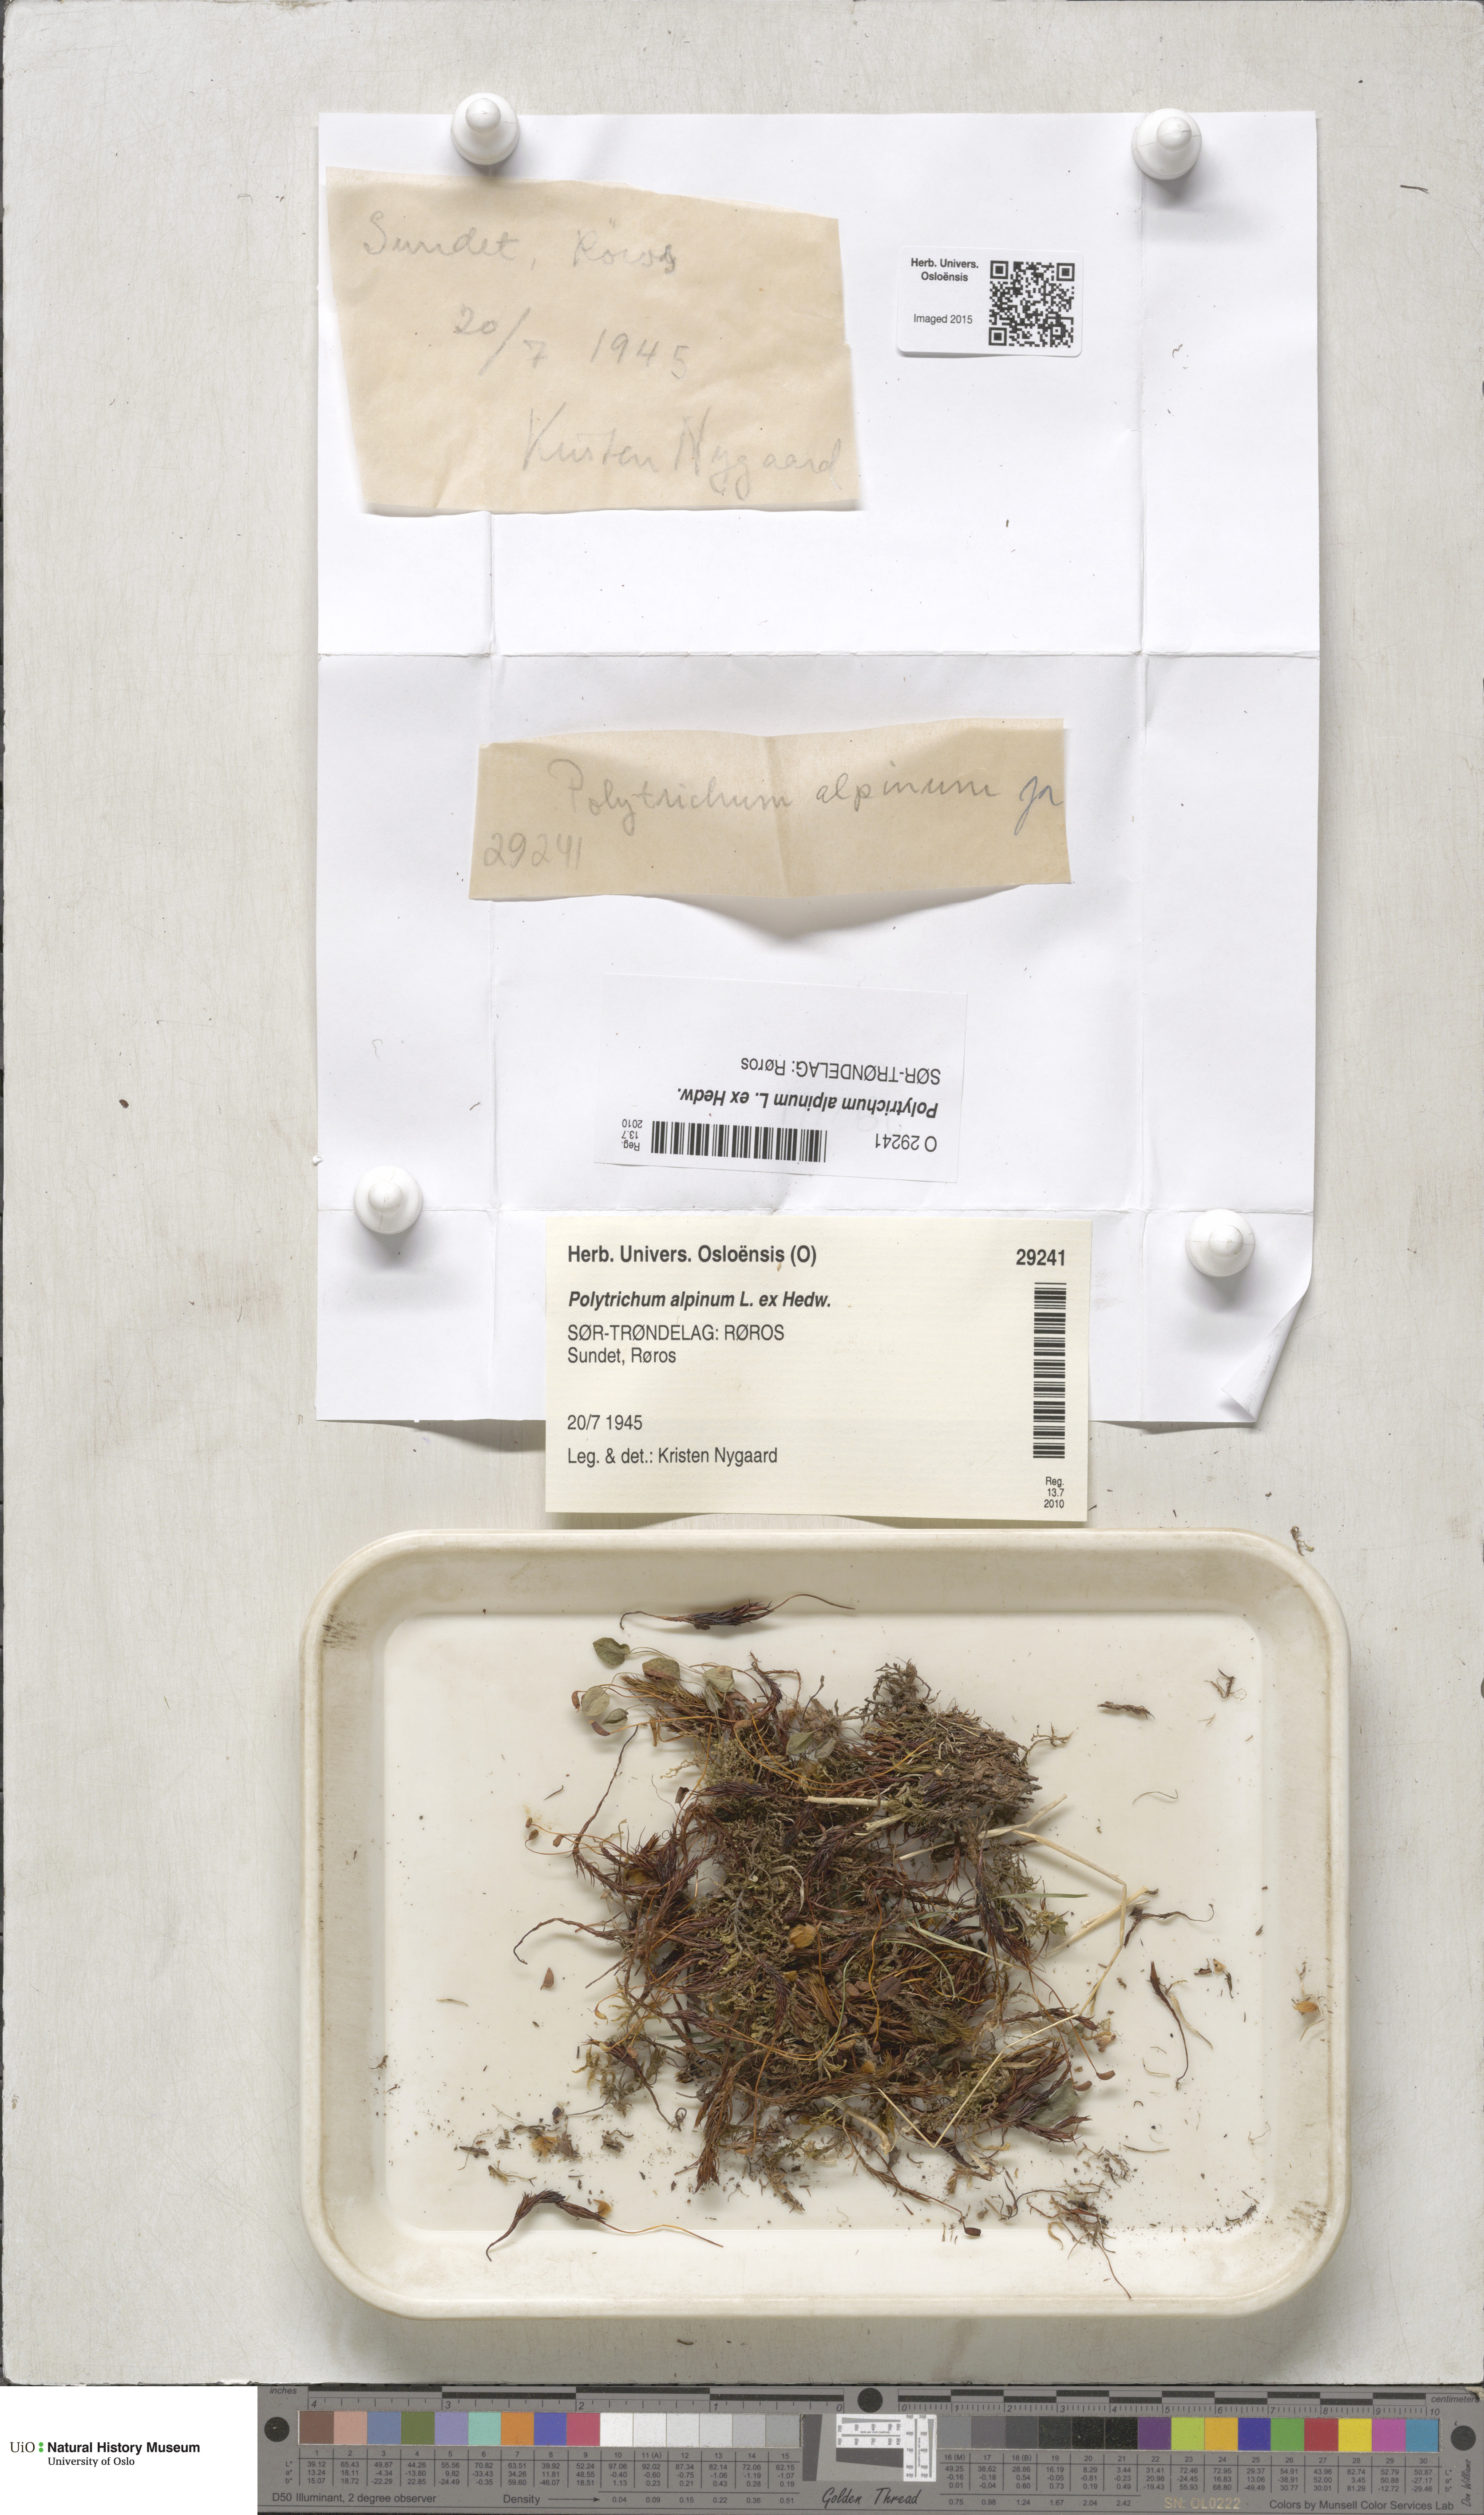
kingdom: Plantae
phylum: Bryophyta
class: Polytrichopsida
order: Polytrichales
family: Polytrichaceae
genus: Polytrichastrum
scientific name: Polytrichastrum alpinum
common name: Alpine haircap
